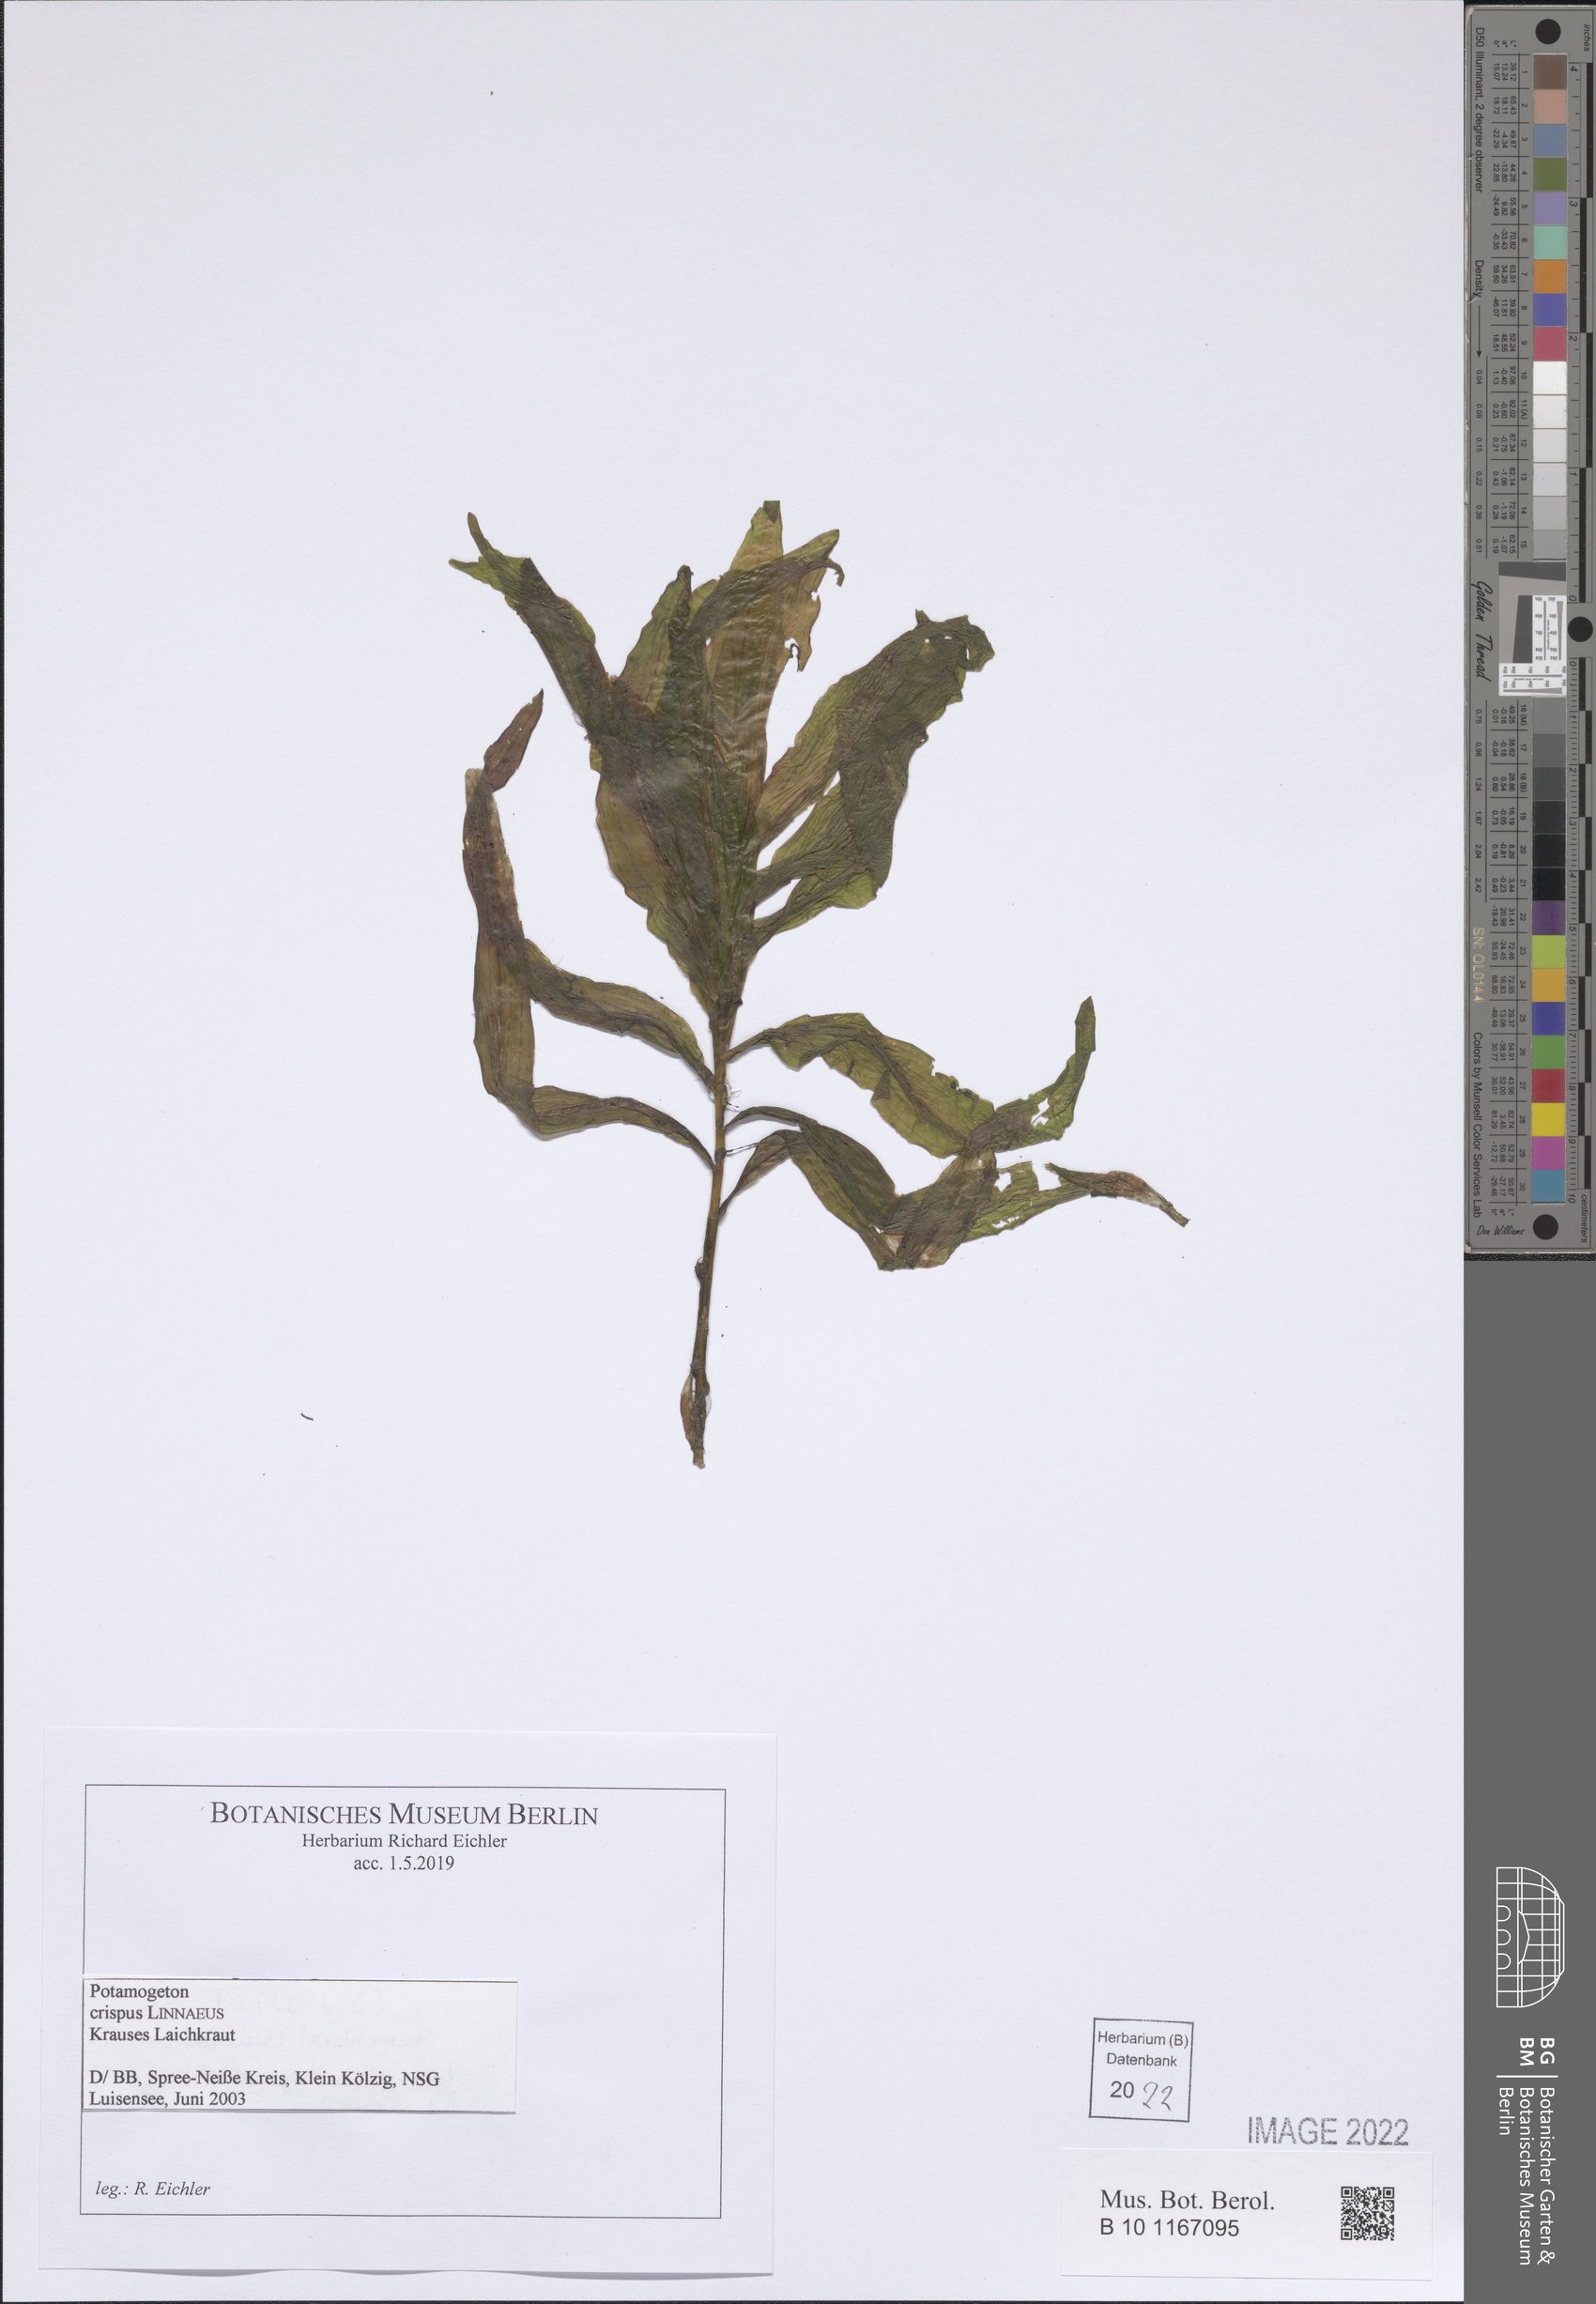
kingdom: Plantae
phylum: Tracheophyta
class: Liliopsida
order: Alismatales
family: Potamogetonaceae
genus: Potamogeton
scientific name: Potamogeton crispus
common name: Curled pondweed
